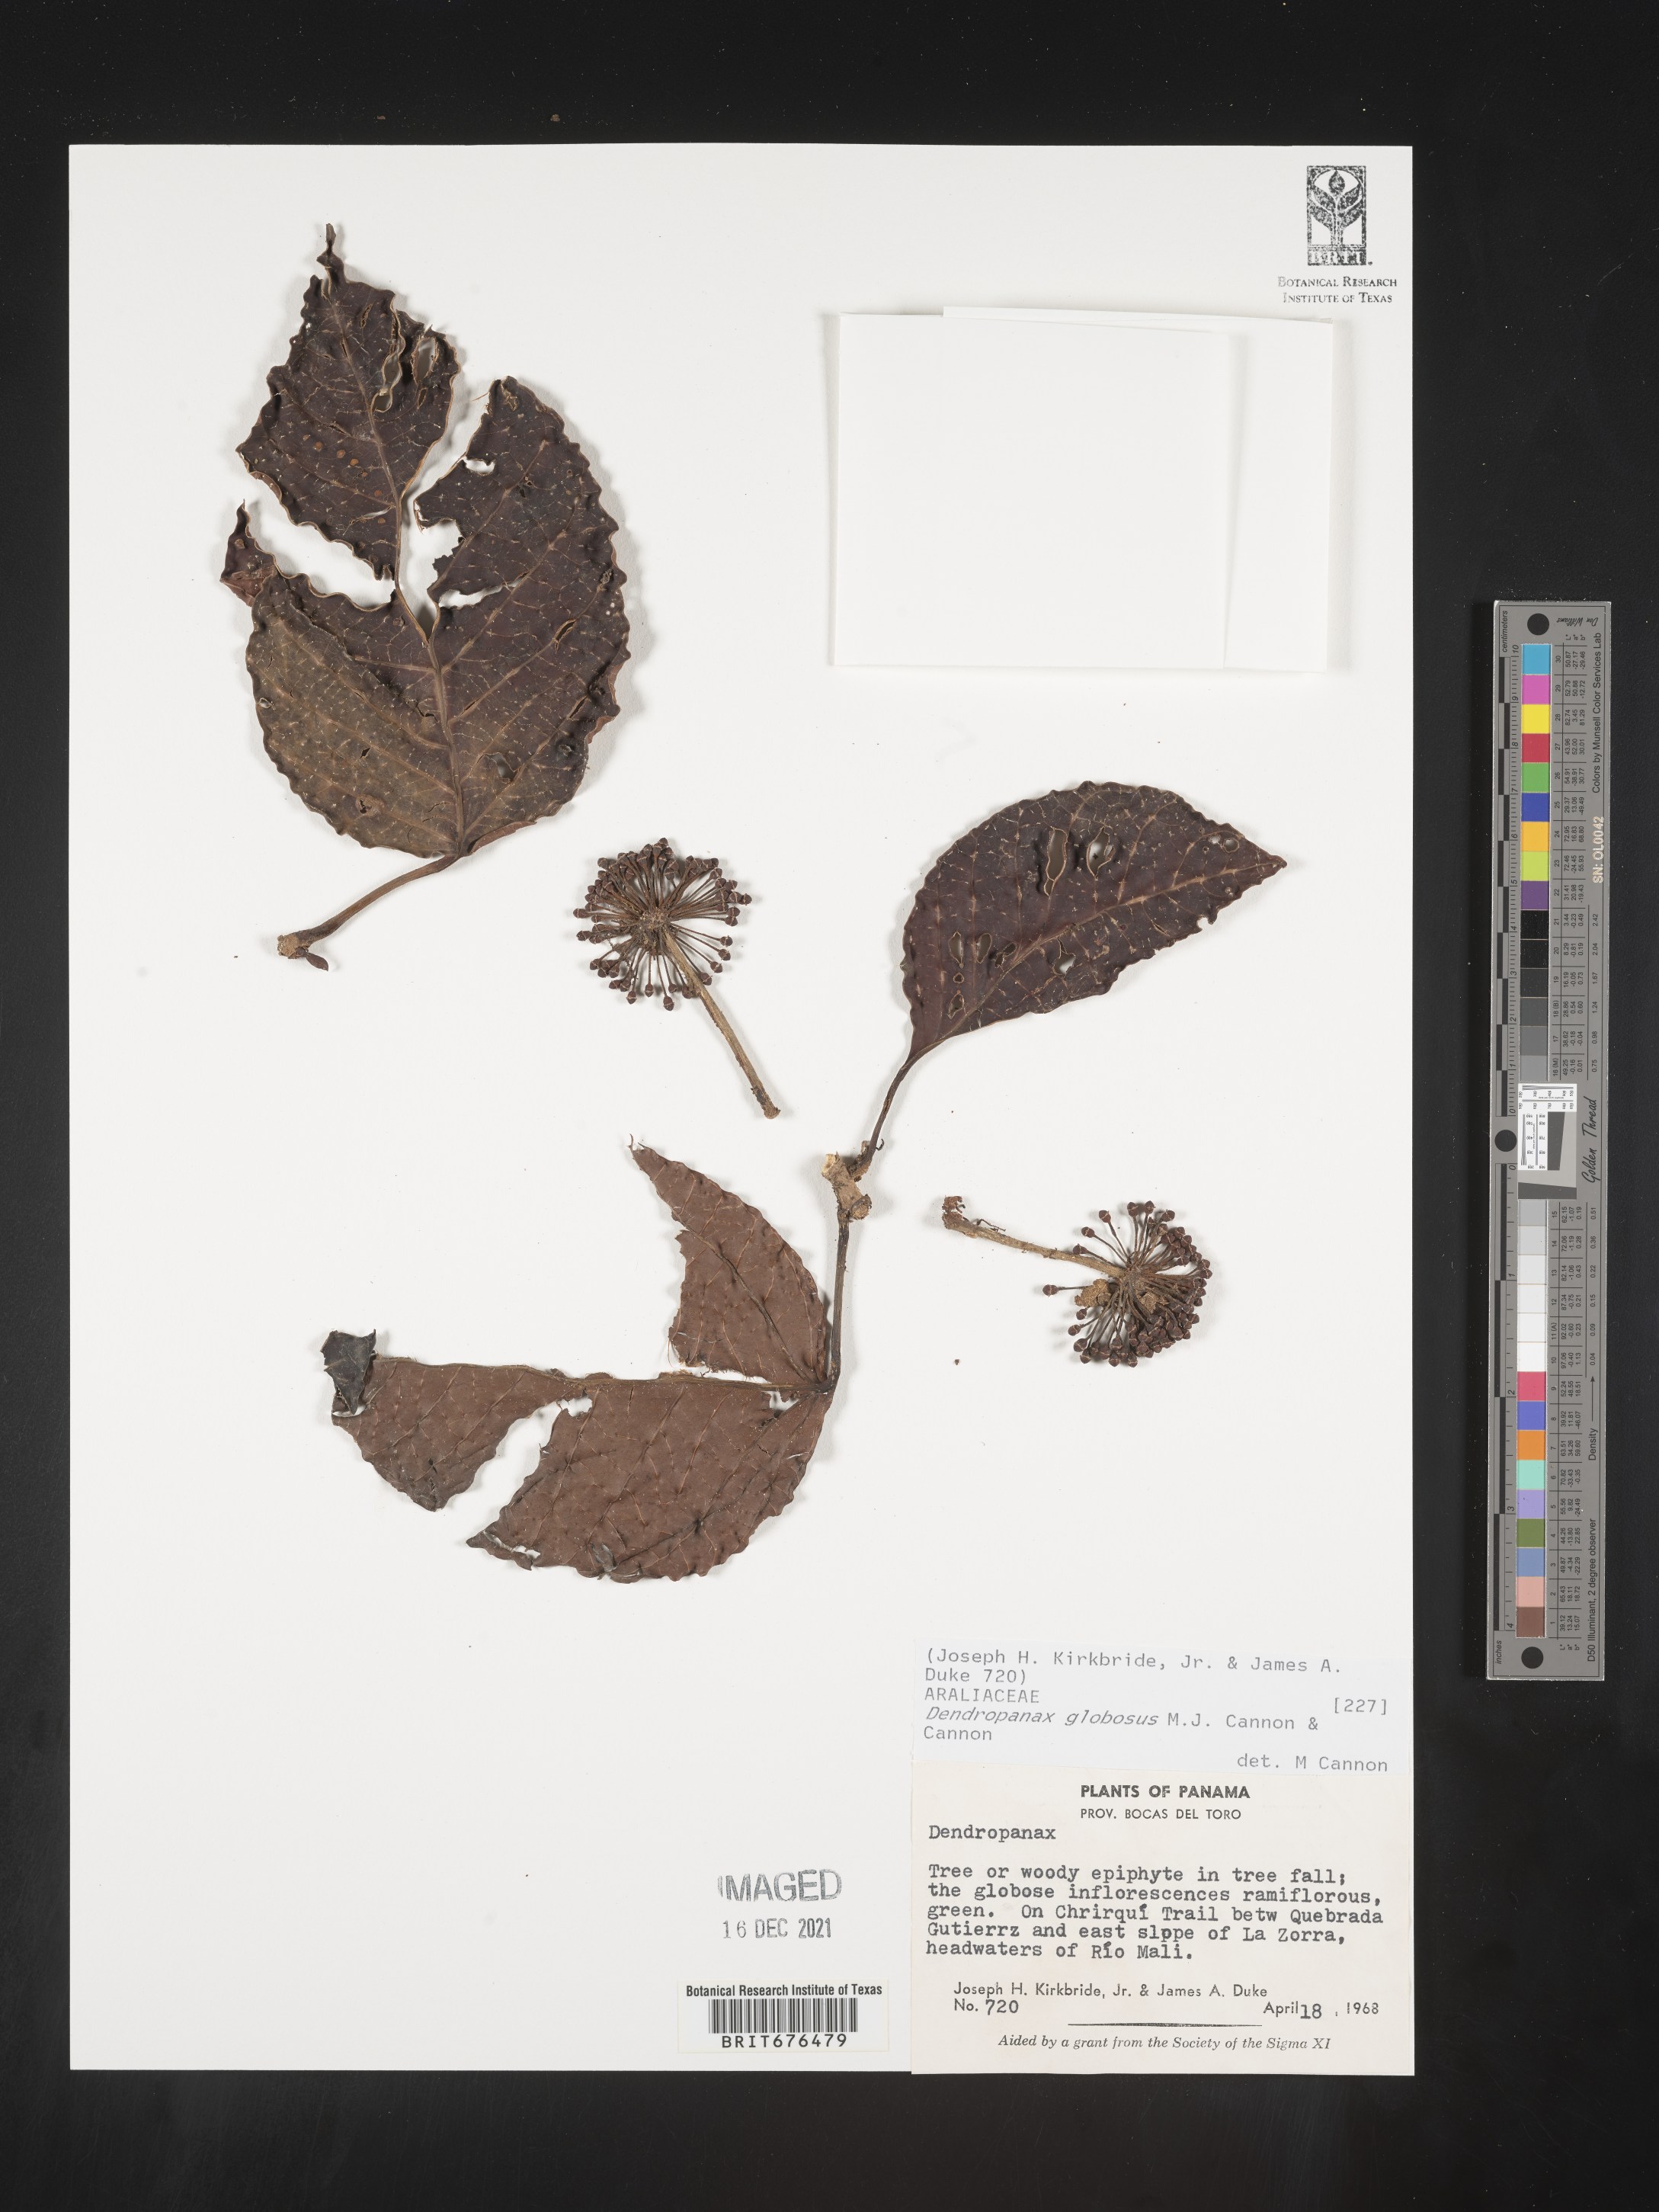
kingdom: Plantae
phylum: Tracheophyta
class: Magnoliopsida
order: Apiales
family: Araliaceae
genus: Dendropanax
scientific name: Dendropanax
